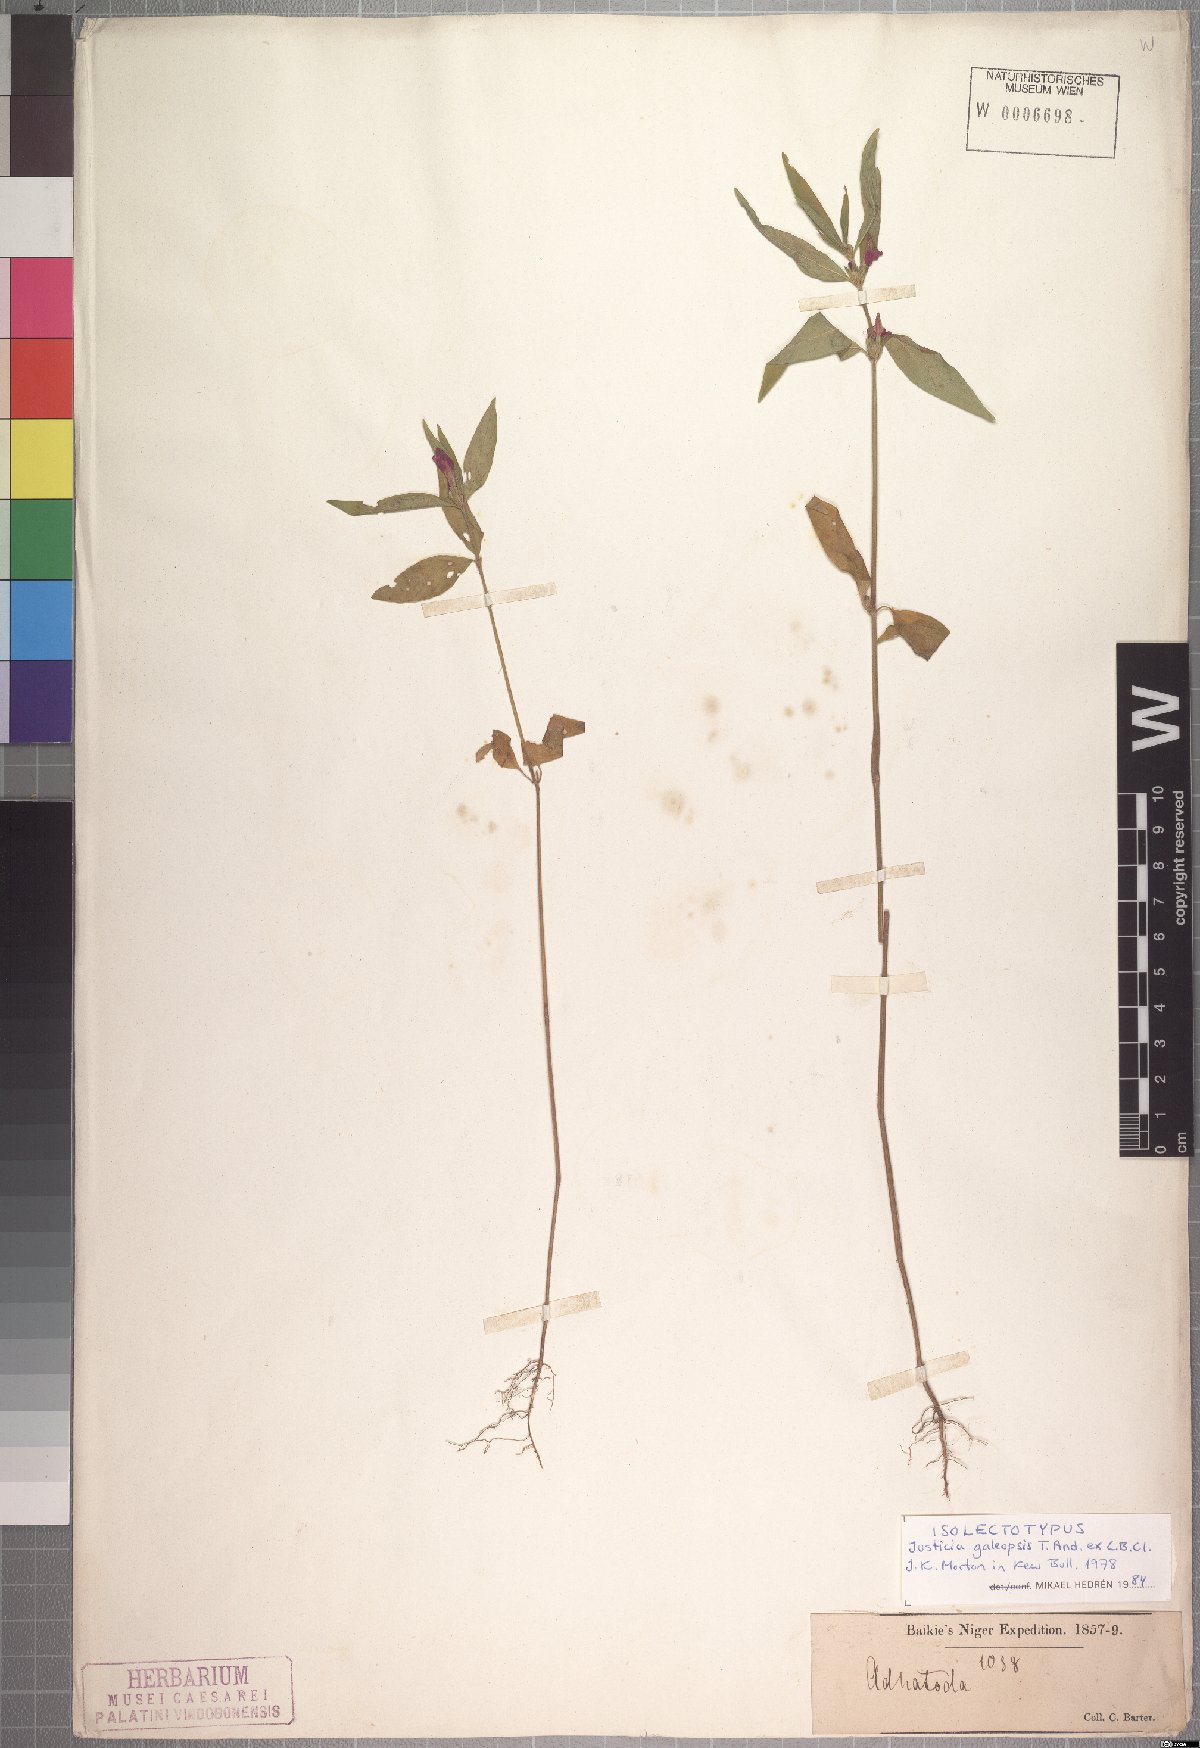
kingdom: Plantae
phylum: Tracheophyta
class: Magnoliopsida
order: Lamiales
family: Acanthaceae
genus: Justicia
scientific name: Justicia ladanoides
